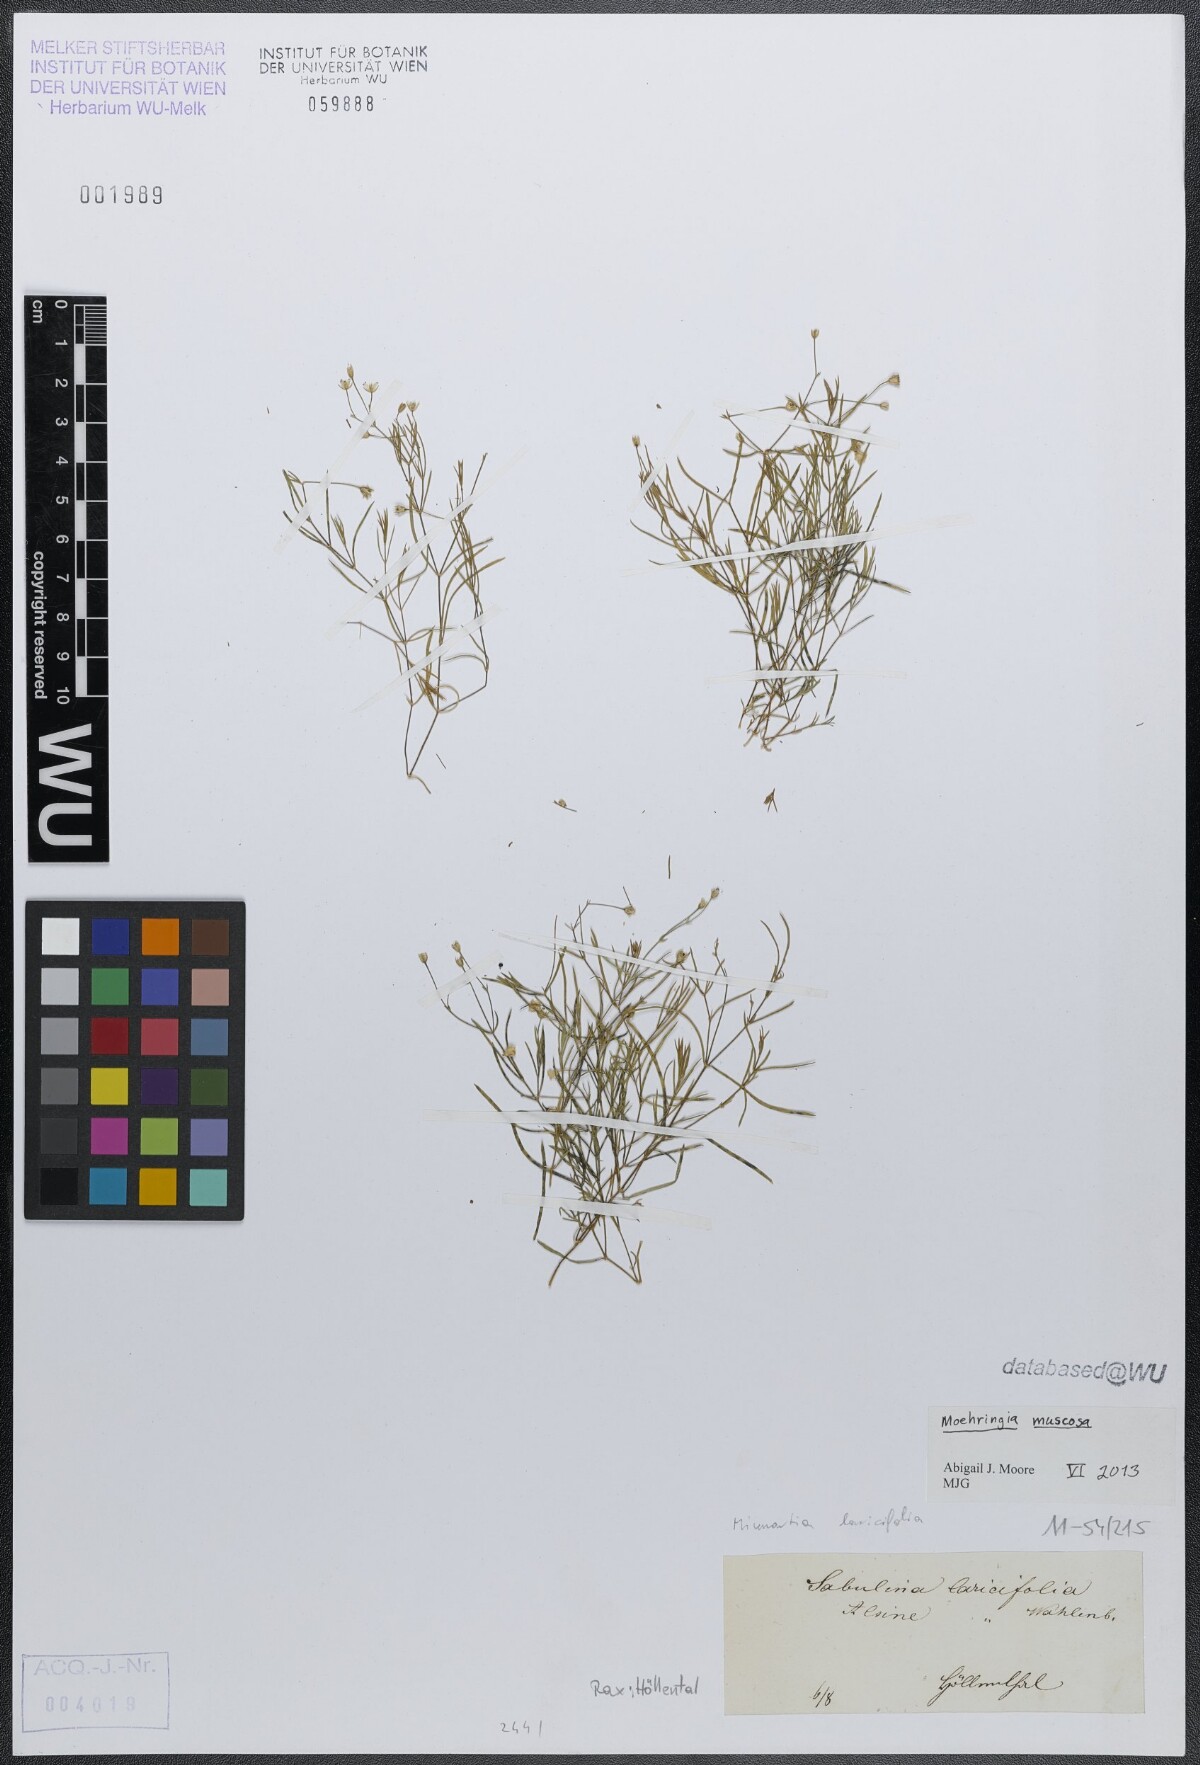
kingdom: Plantae
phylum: Tracheophyta
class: Magnoliopsida
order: Caryophyllales
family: Caryophyllaceae
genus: Moehringia
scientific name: Moehringia muscosa
